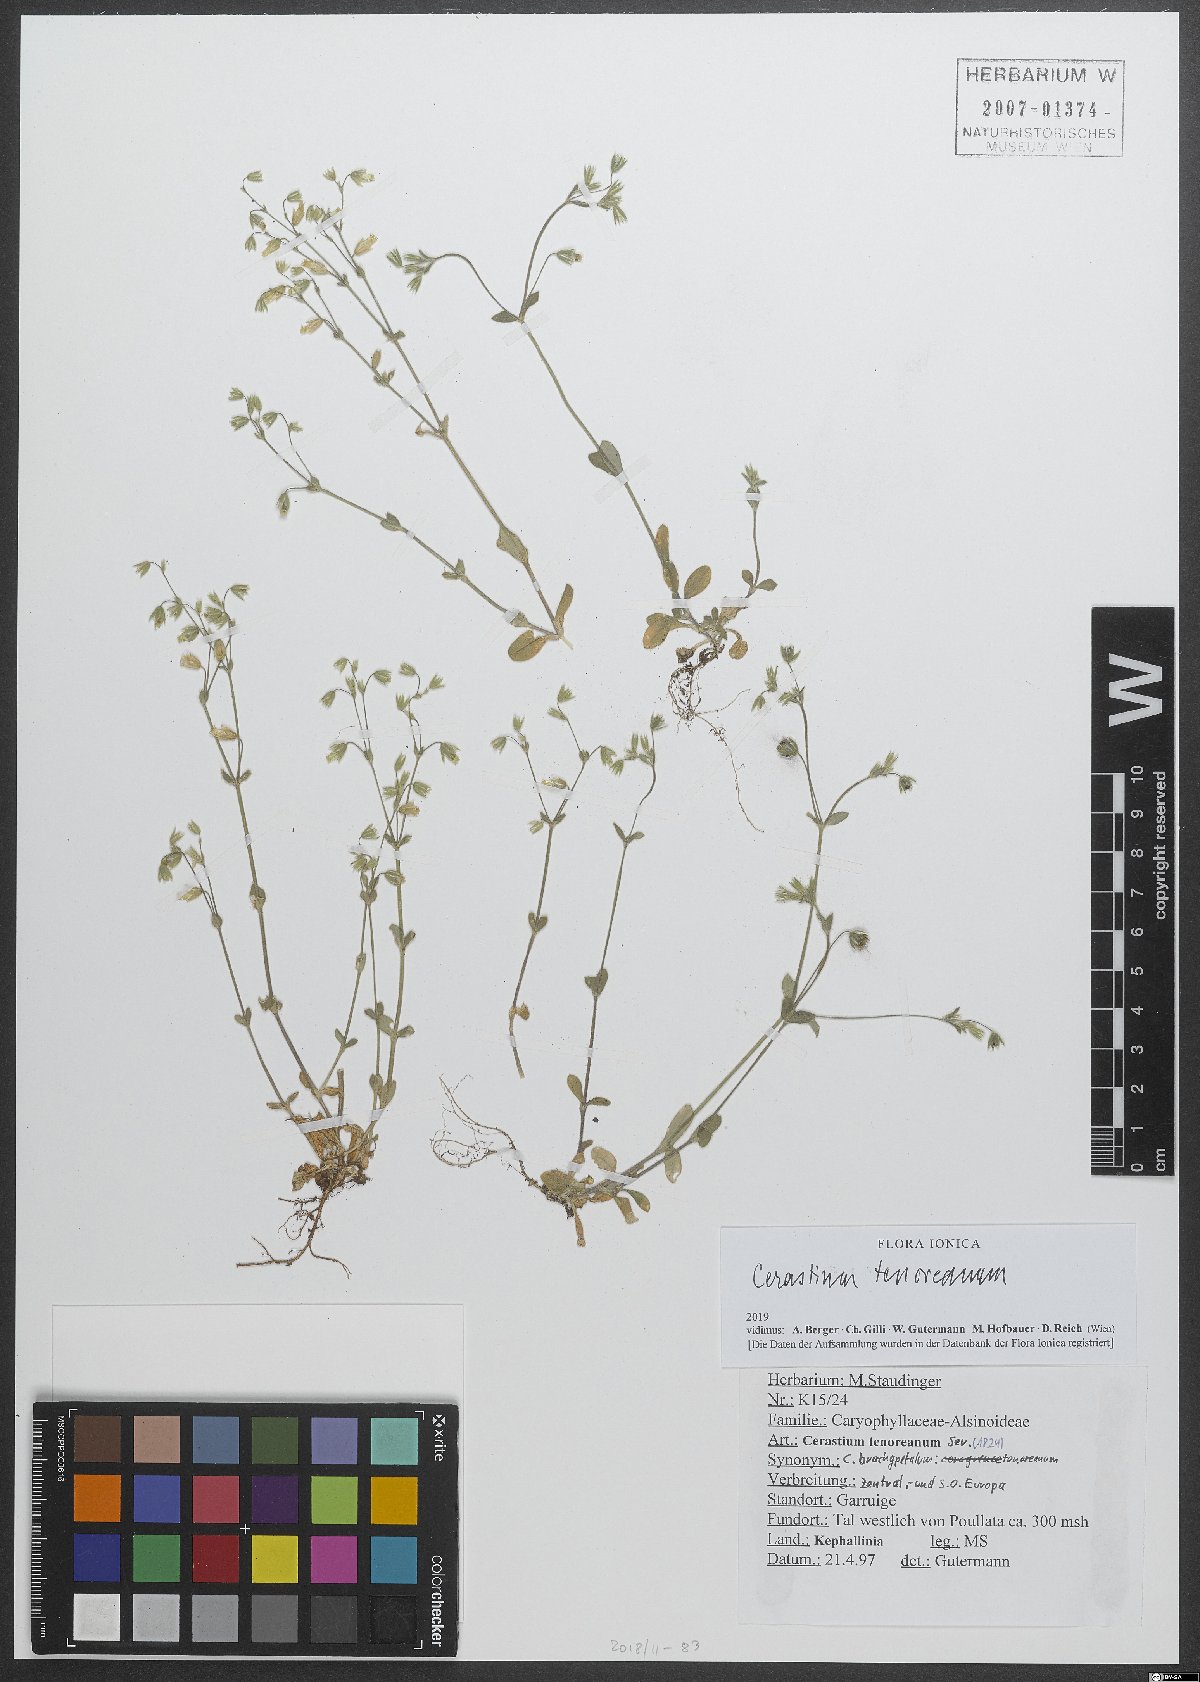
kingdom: Plantae
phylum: Tracheophyta
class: Magnoliopsida
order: Caryophyllales
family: Caryophyllaceae
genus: Cerastium
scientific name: Cerastium tenoreanum
